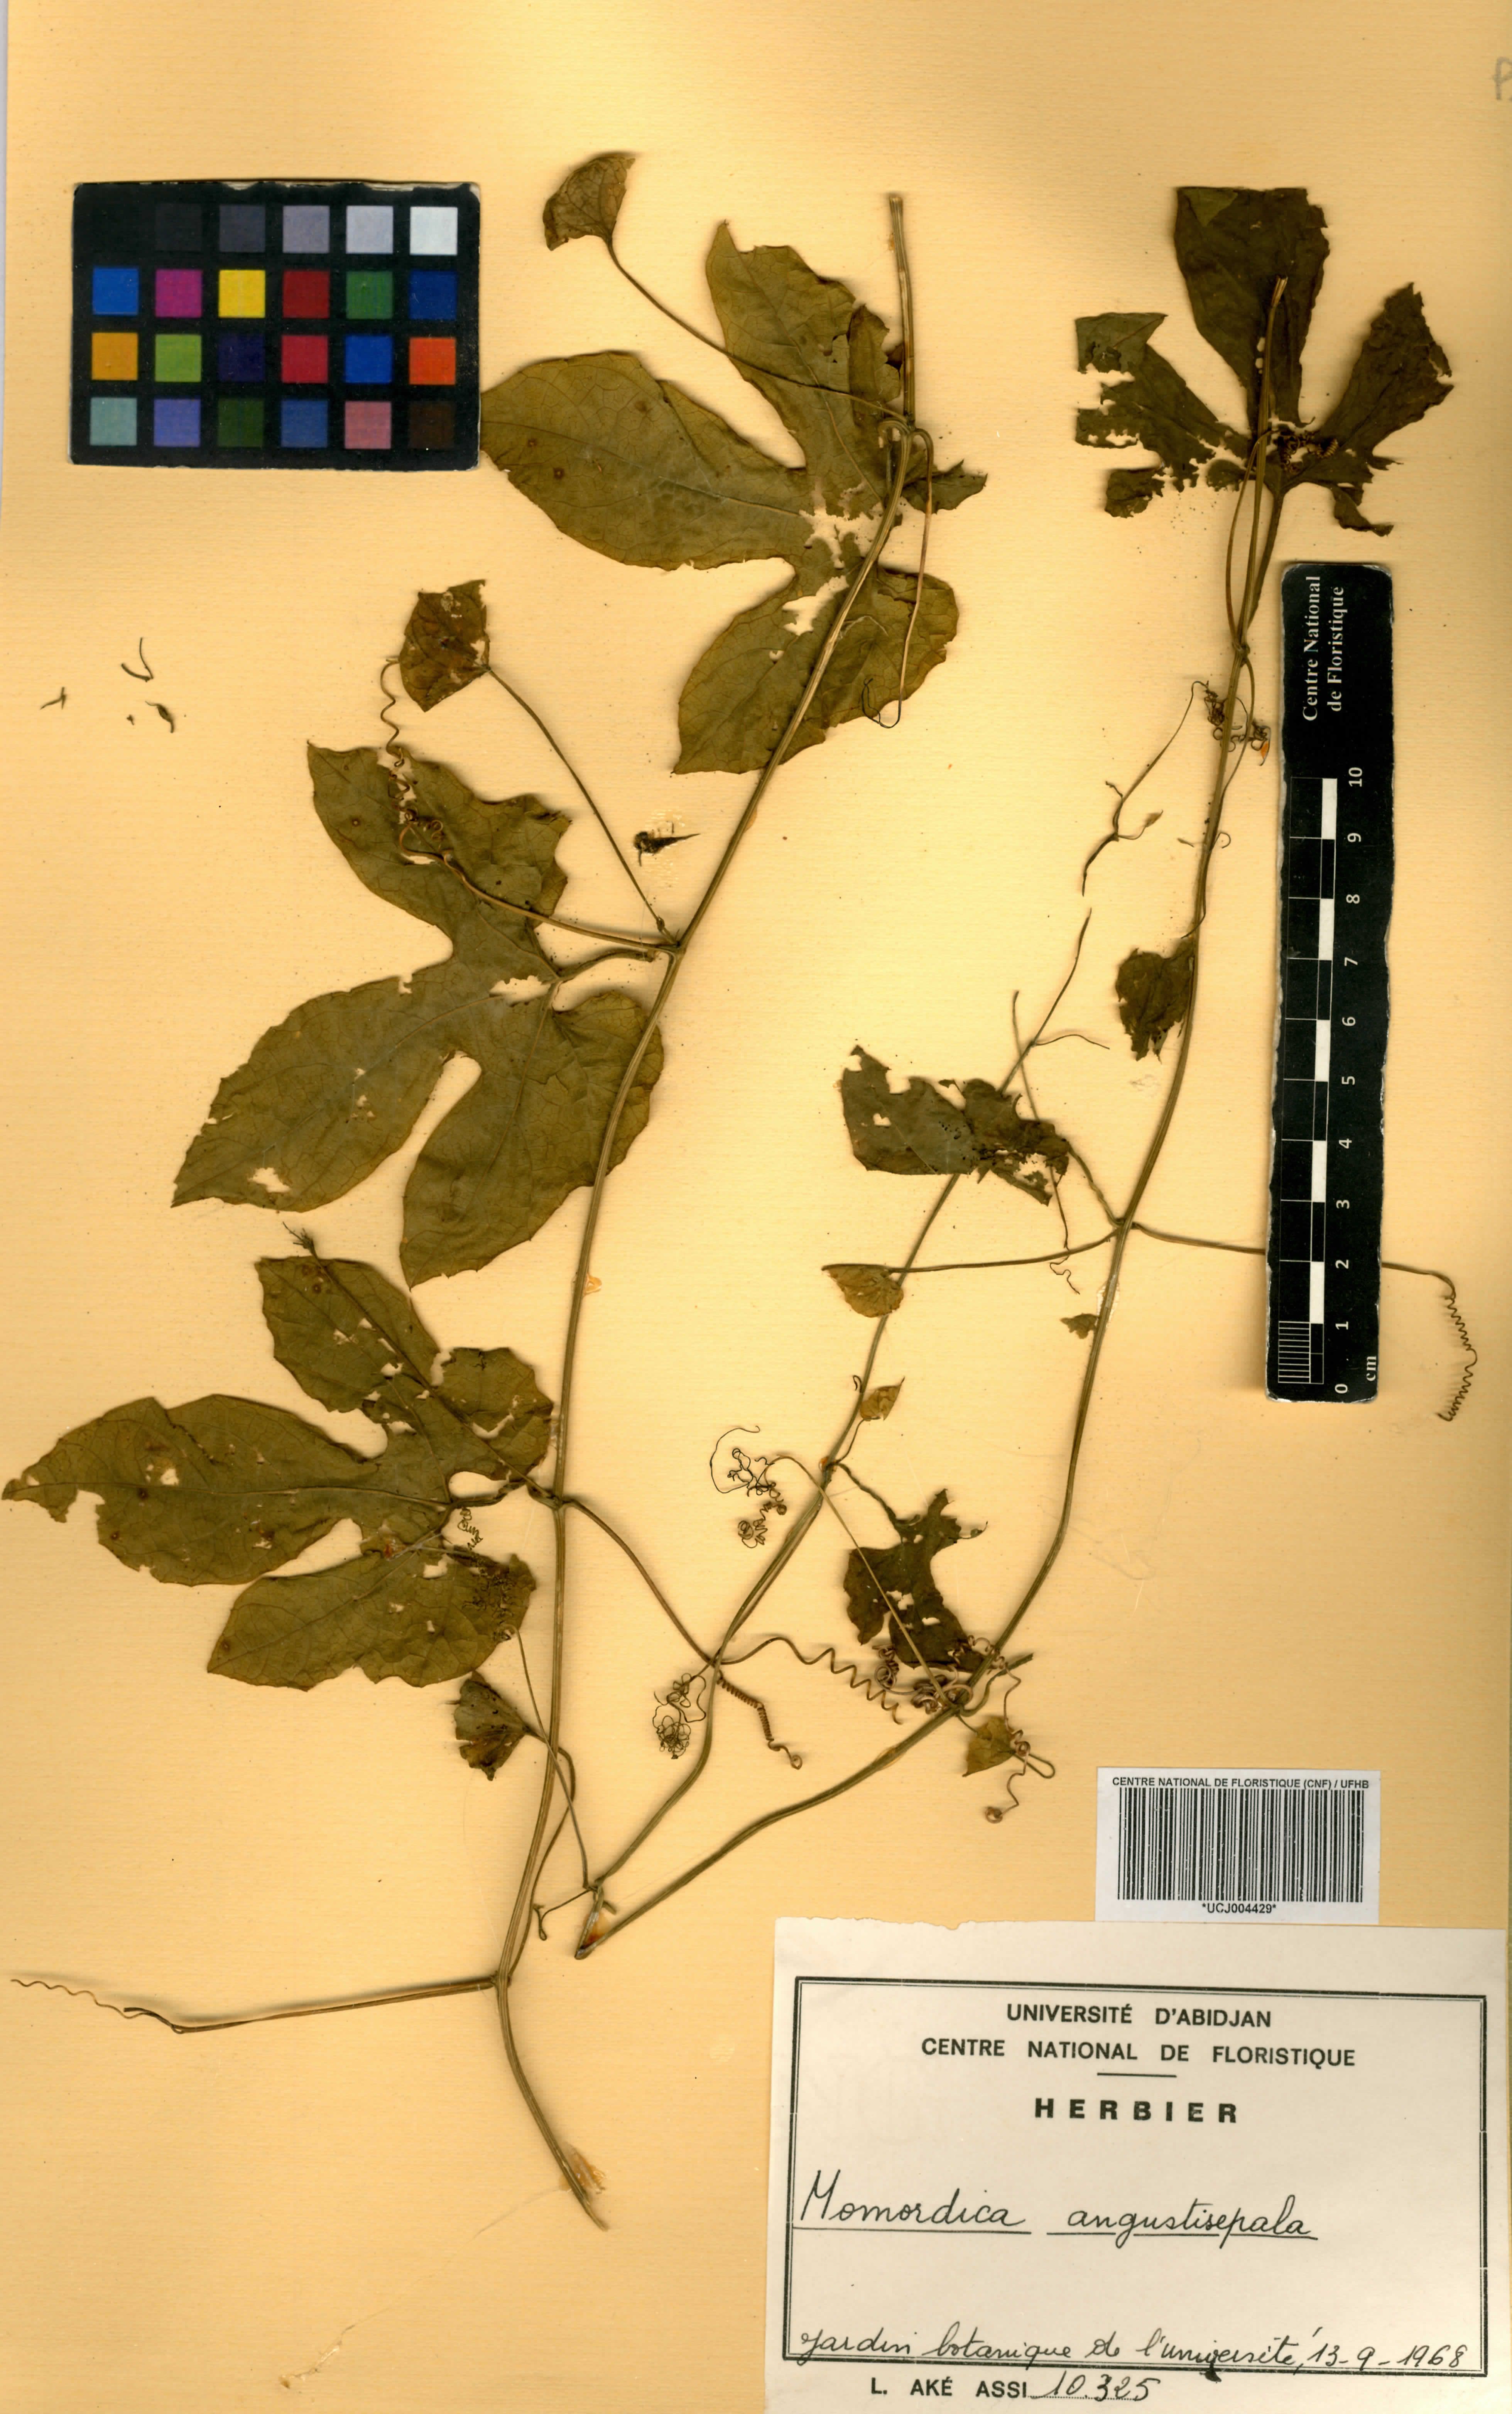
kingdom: Plantae
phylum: Tracheophyta
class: Magnoliopsida
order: Cucurbitales
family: Cucurbitaceae
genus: Momordica
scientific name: Momordica angustisepala
